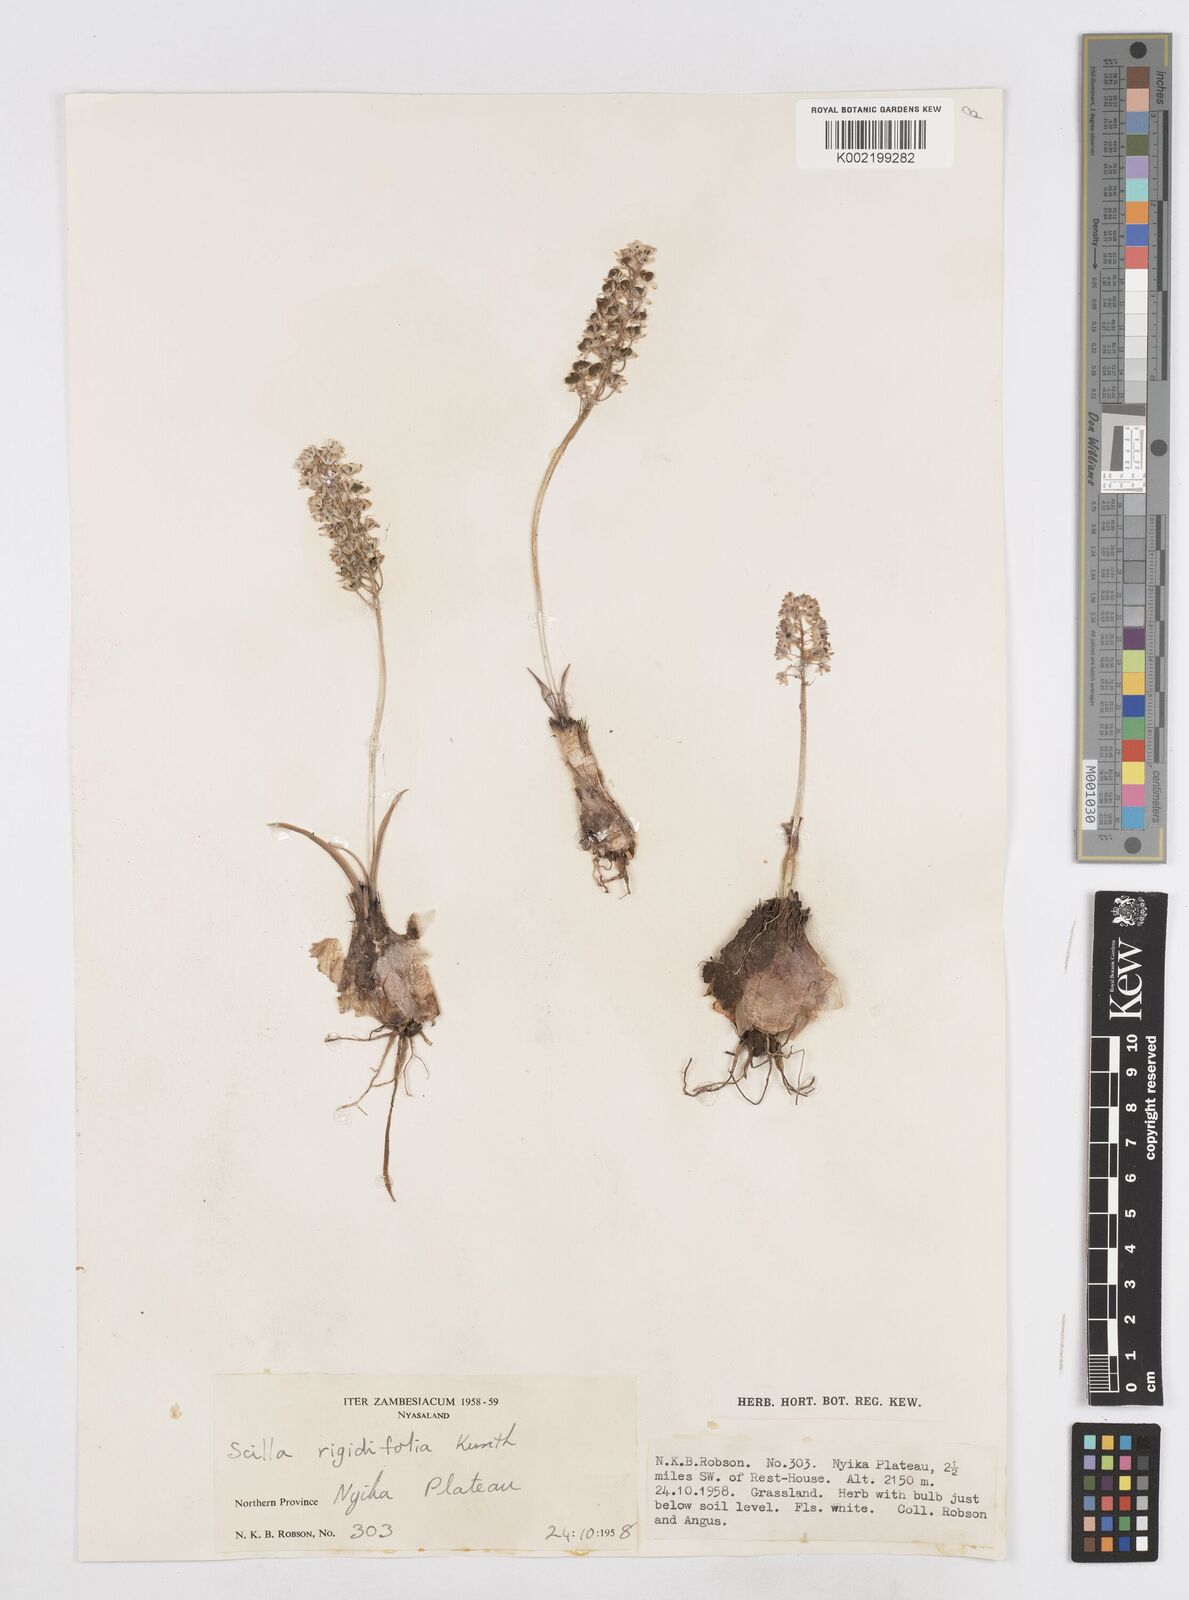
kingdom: Plantae
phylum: Tracheophyta
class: Liliopsida
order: Asparagales
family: Asparagaceae
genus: Schizocarphus
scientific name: Schizocarphus nervosus
